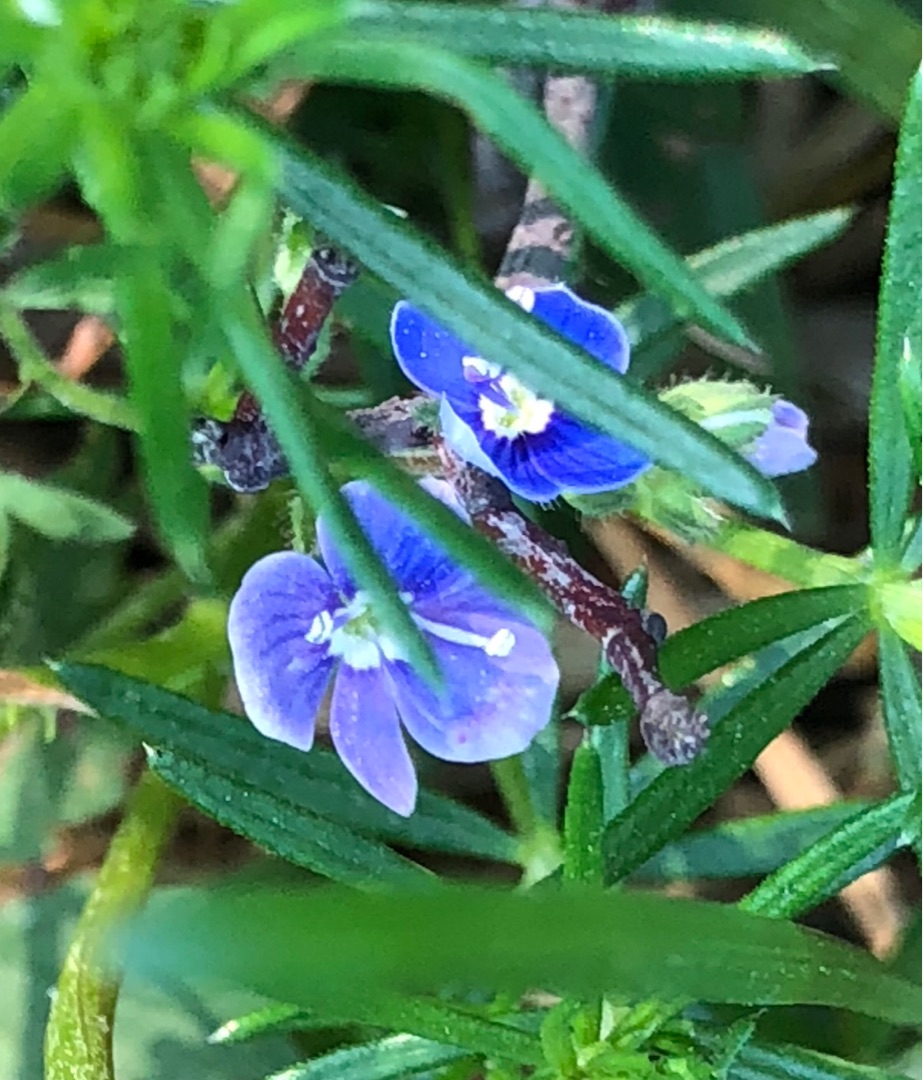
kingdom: Plantae
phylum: Tracheophyta
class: Magnoliopsida
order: Lamiales
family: Plantaginaceae
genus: Veronica
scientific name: Veronica chamaedrys
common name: Tveskægget ærenpris
